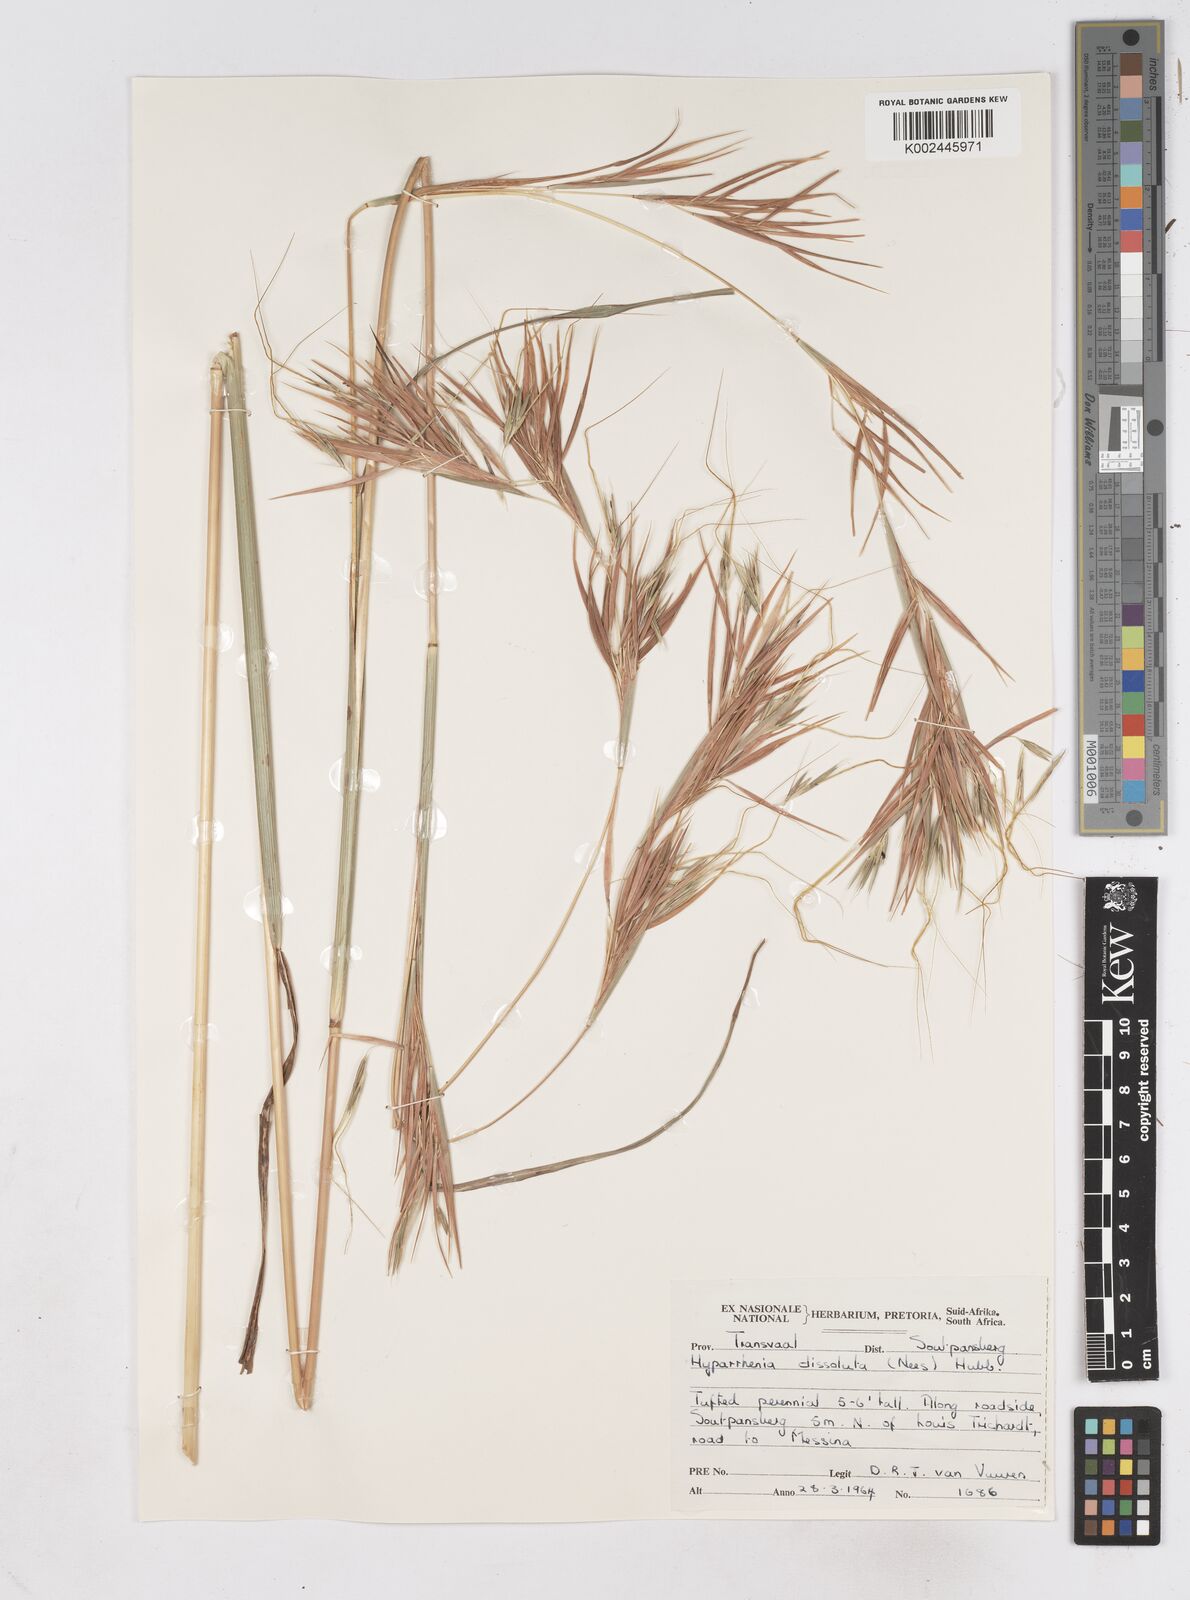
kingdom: Plantae
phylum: Tracheophyta
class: Liliopsida
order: Poales
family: Poaceae
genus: Hyperthelia
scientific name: Hyperthelia dissoluta
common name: Yellow thatching grass
